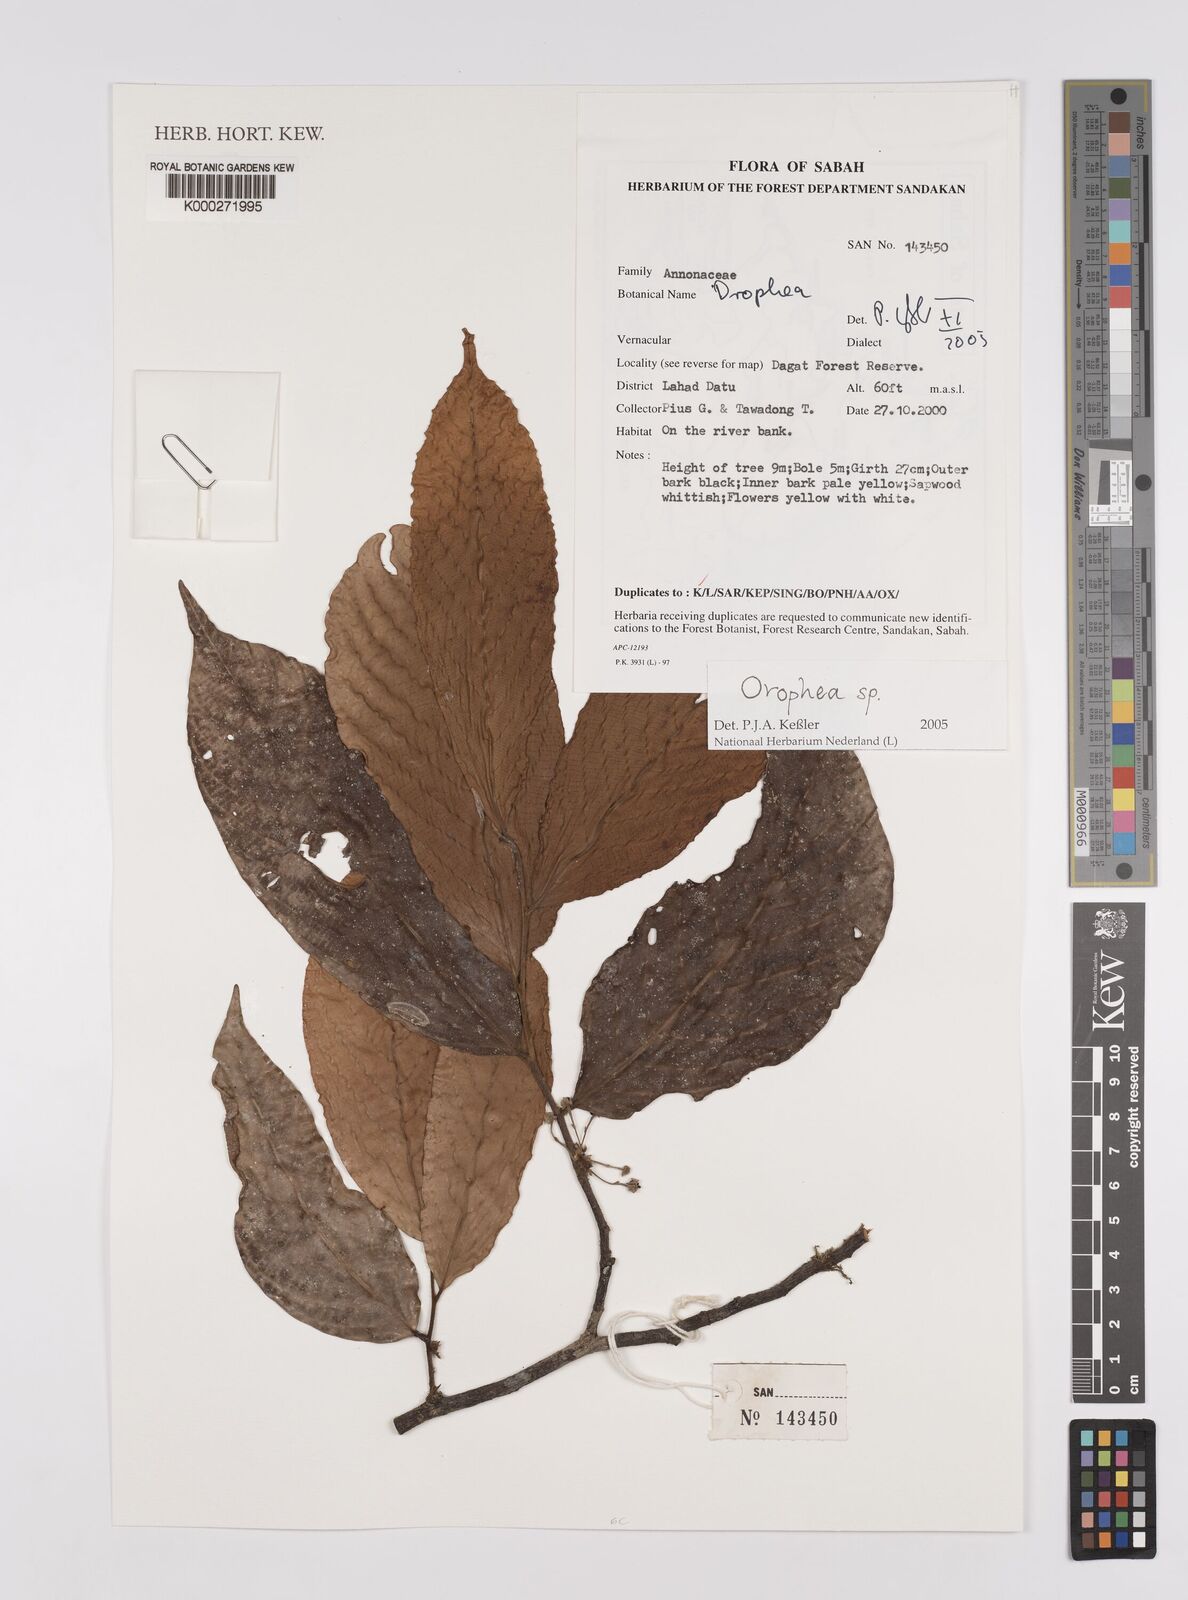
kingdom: Plantae
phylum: Tracheophyta
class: Magnoliopsida
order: Magnoliales
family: Annonaceae
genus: Orophea
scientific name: Orophea
